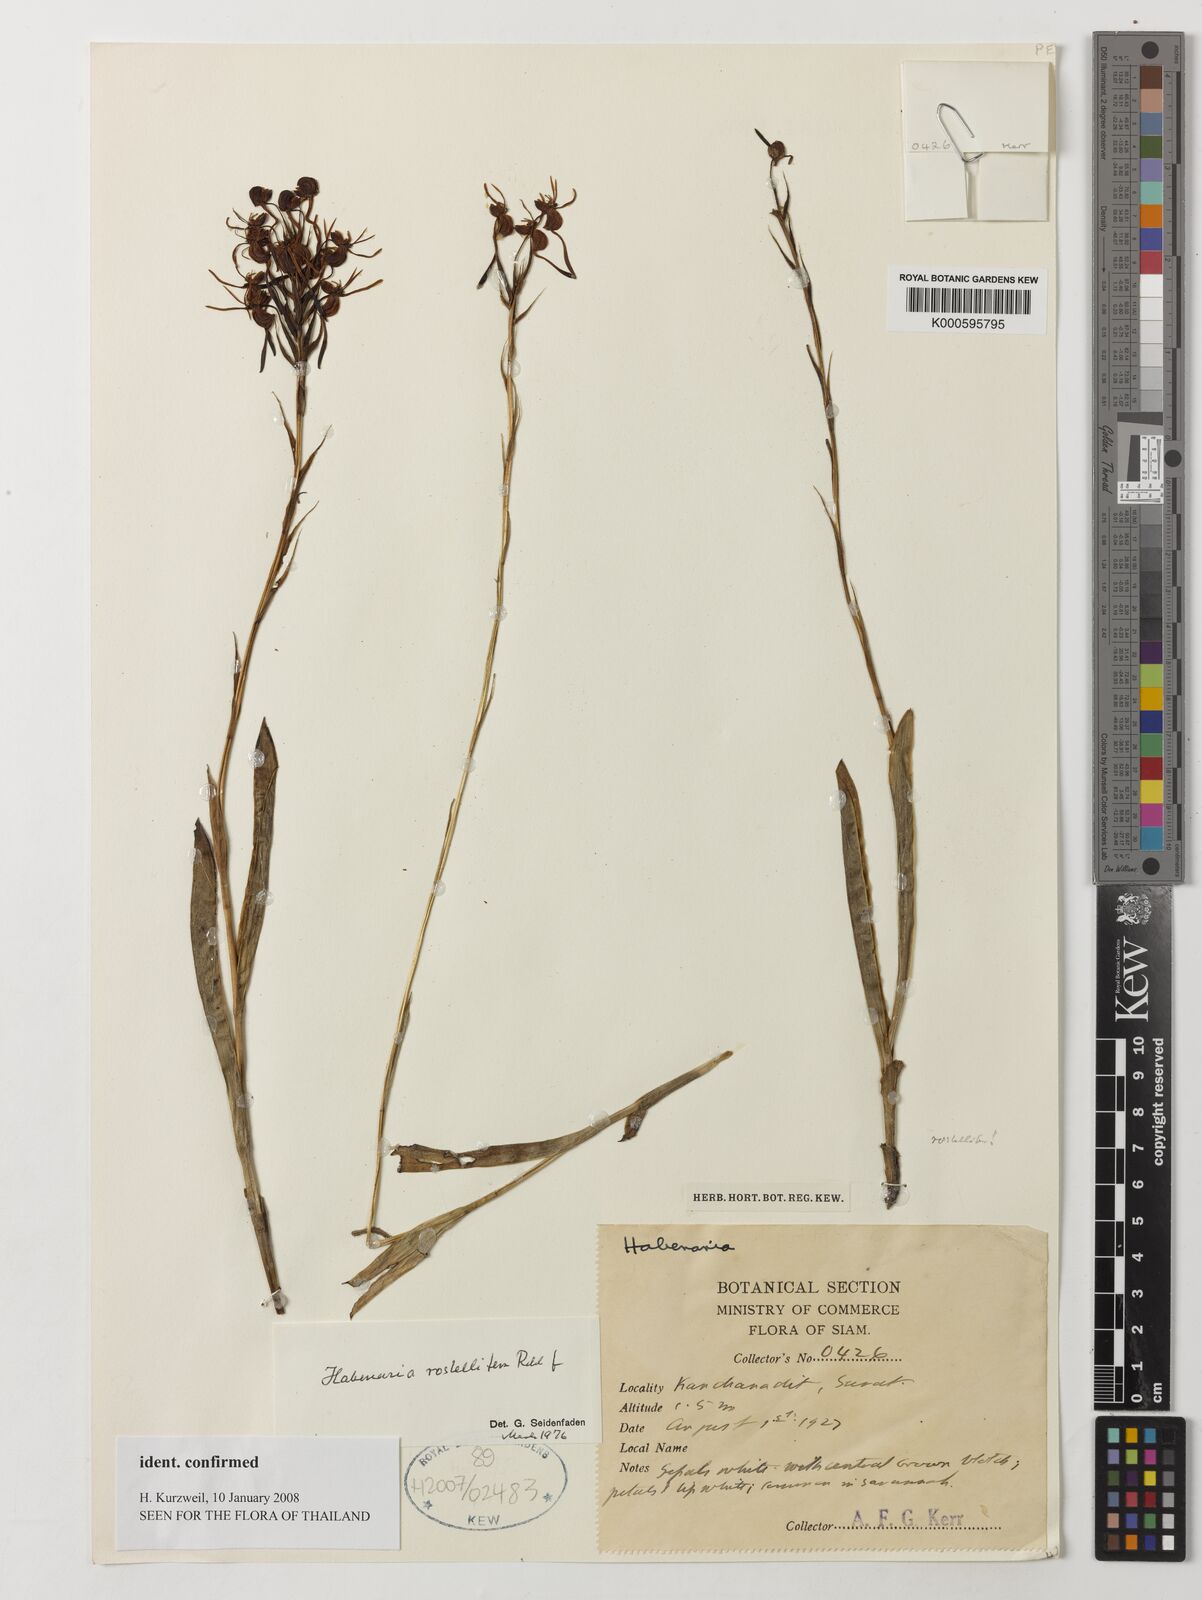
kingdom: Plantae
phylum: Tracheophyta
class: Liliopsida
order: Asparagales
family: Orchidaceae
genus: Habenaria
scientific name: Habenaria rostellifera
